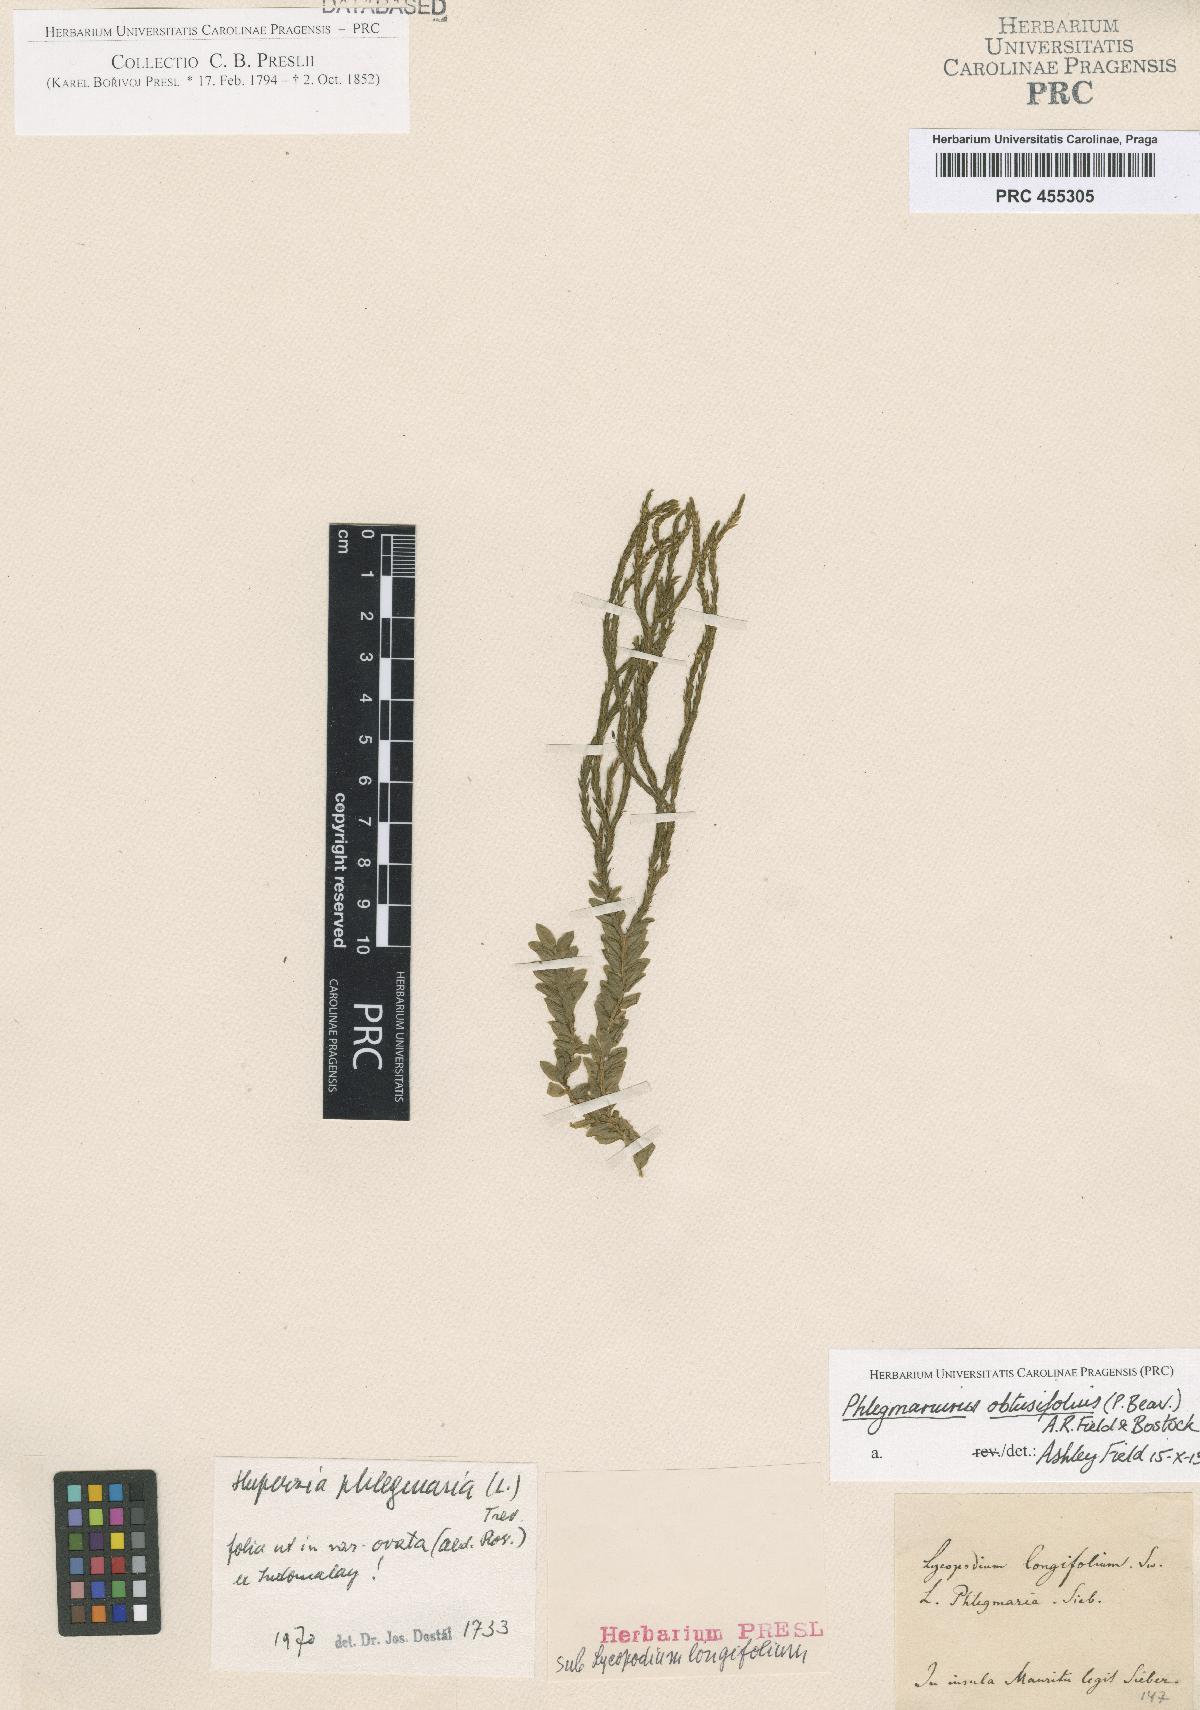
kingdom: Plantae
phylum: Tracheophyta
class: Lycopodiopsida
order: Lycopodiales
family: Lycopodiaceae
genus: Phlegmariurus
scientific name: Phlegmariurus phlegmaria
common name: Coarse tassel-fern
